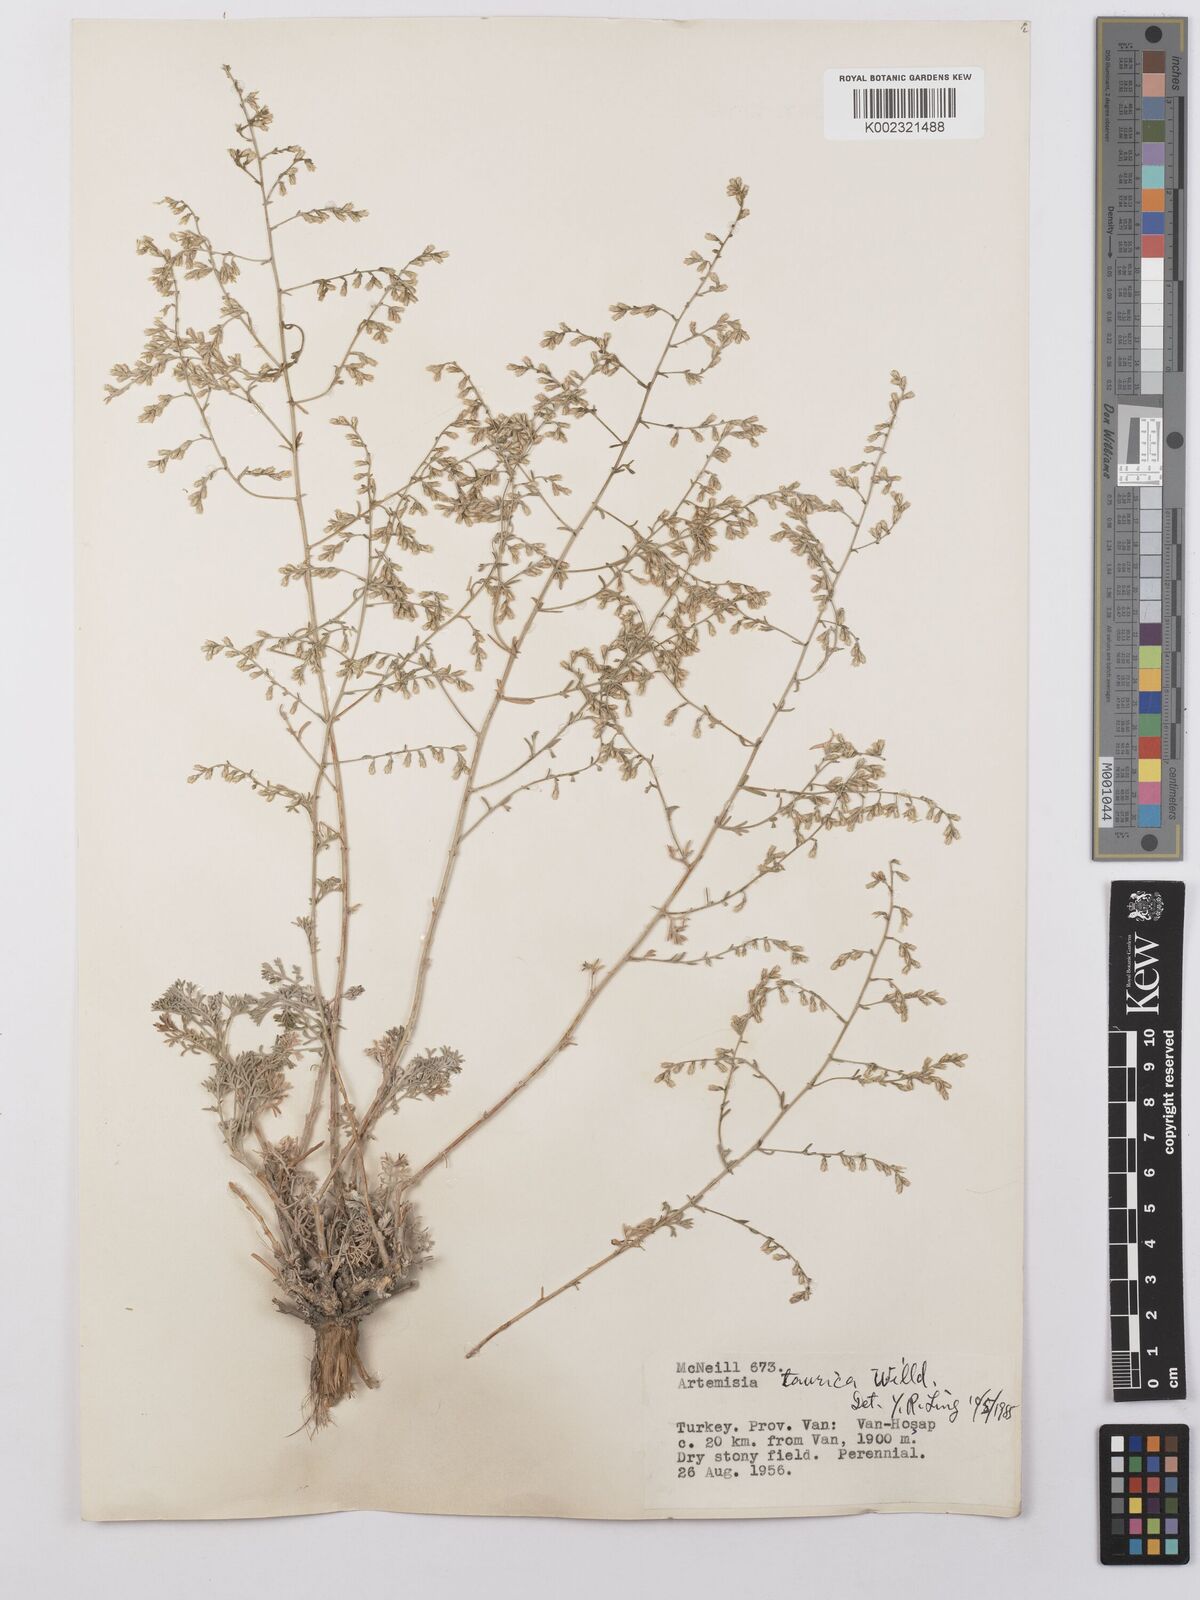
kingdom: Plantae
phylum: Tracheophyta
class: Magnoliopsida
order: Asterales
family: Asteraceae
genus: Artemisia
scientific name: Artemisia taurica
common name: Tauric wormwood
